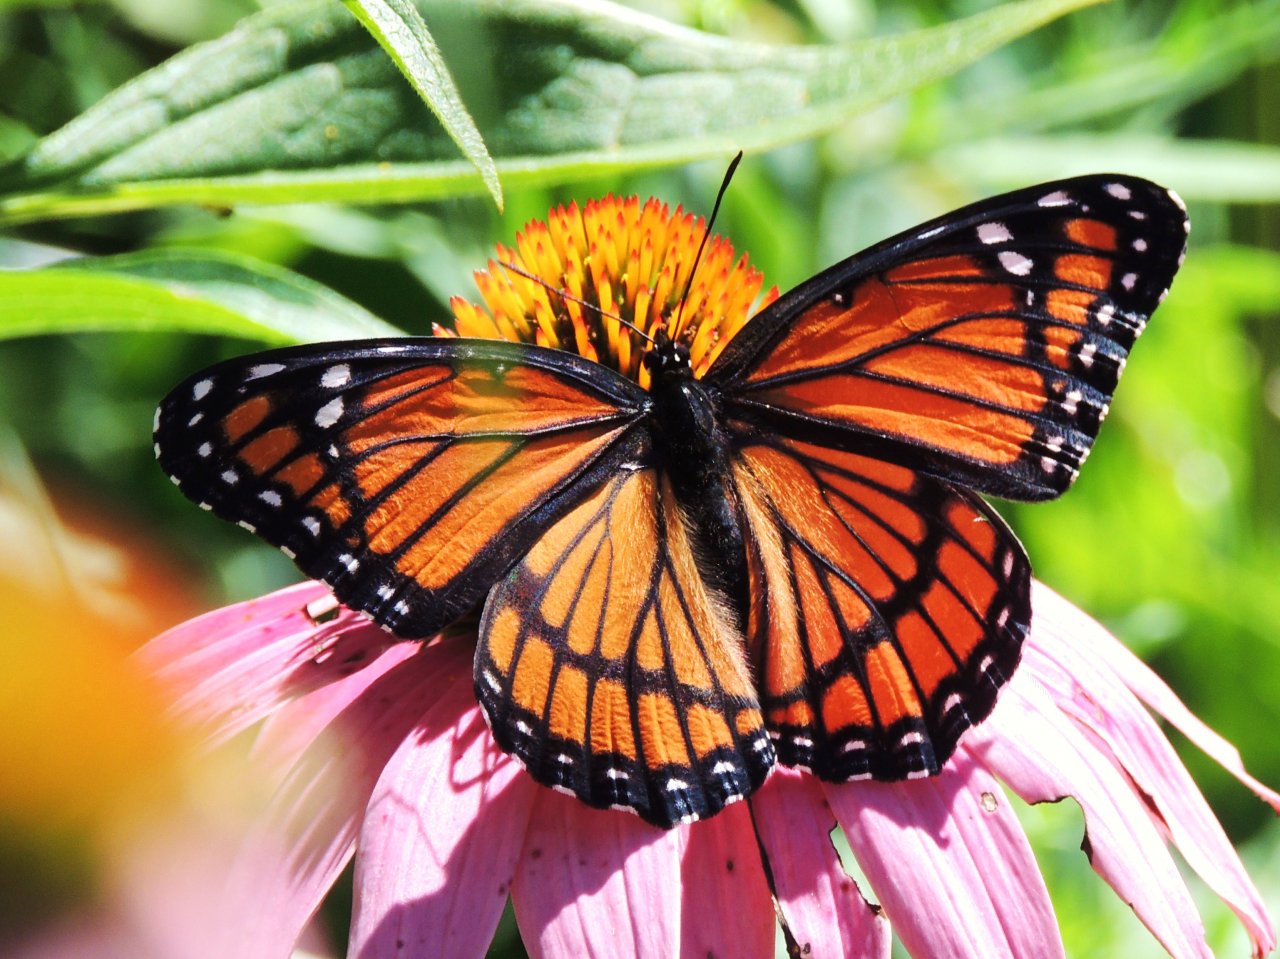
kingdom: Animalia
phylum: Arthropoda
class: Insecta
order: Lepidoptera
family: Nymphalidae
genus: Limenitis
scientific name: Limenitis archippus
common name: Viceroy
